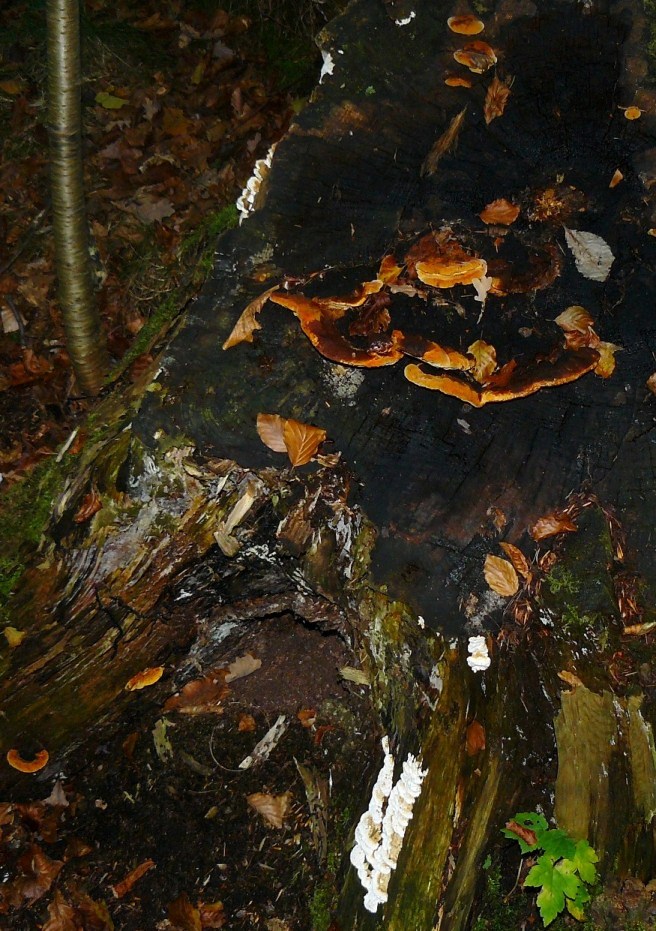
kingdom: Fungi
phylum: Basidiomycota
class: Agaricomycetes
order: Gloeophyllales
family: Gloeophyllaceae
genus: Gloeophyllum
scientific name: Gloeophyllum odoratum
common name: duftende korkhat
